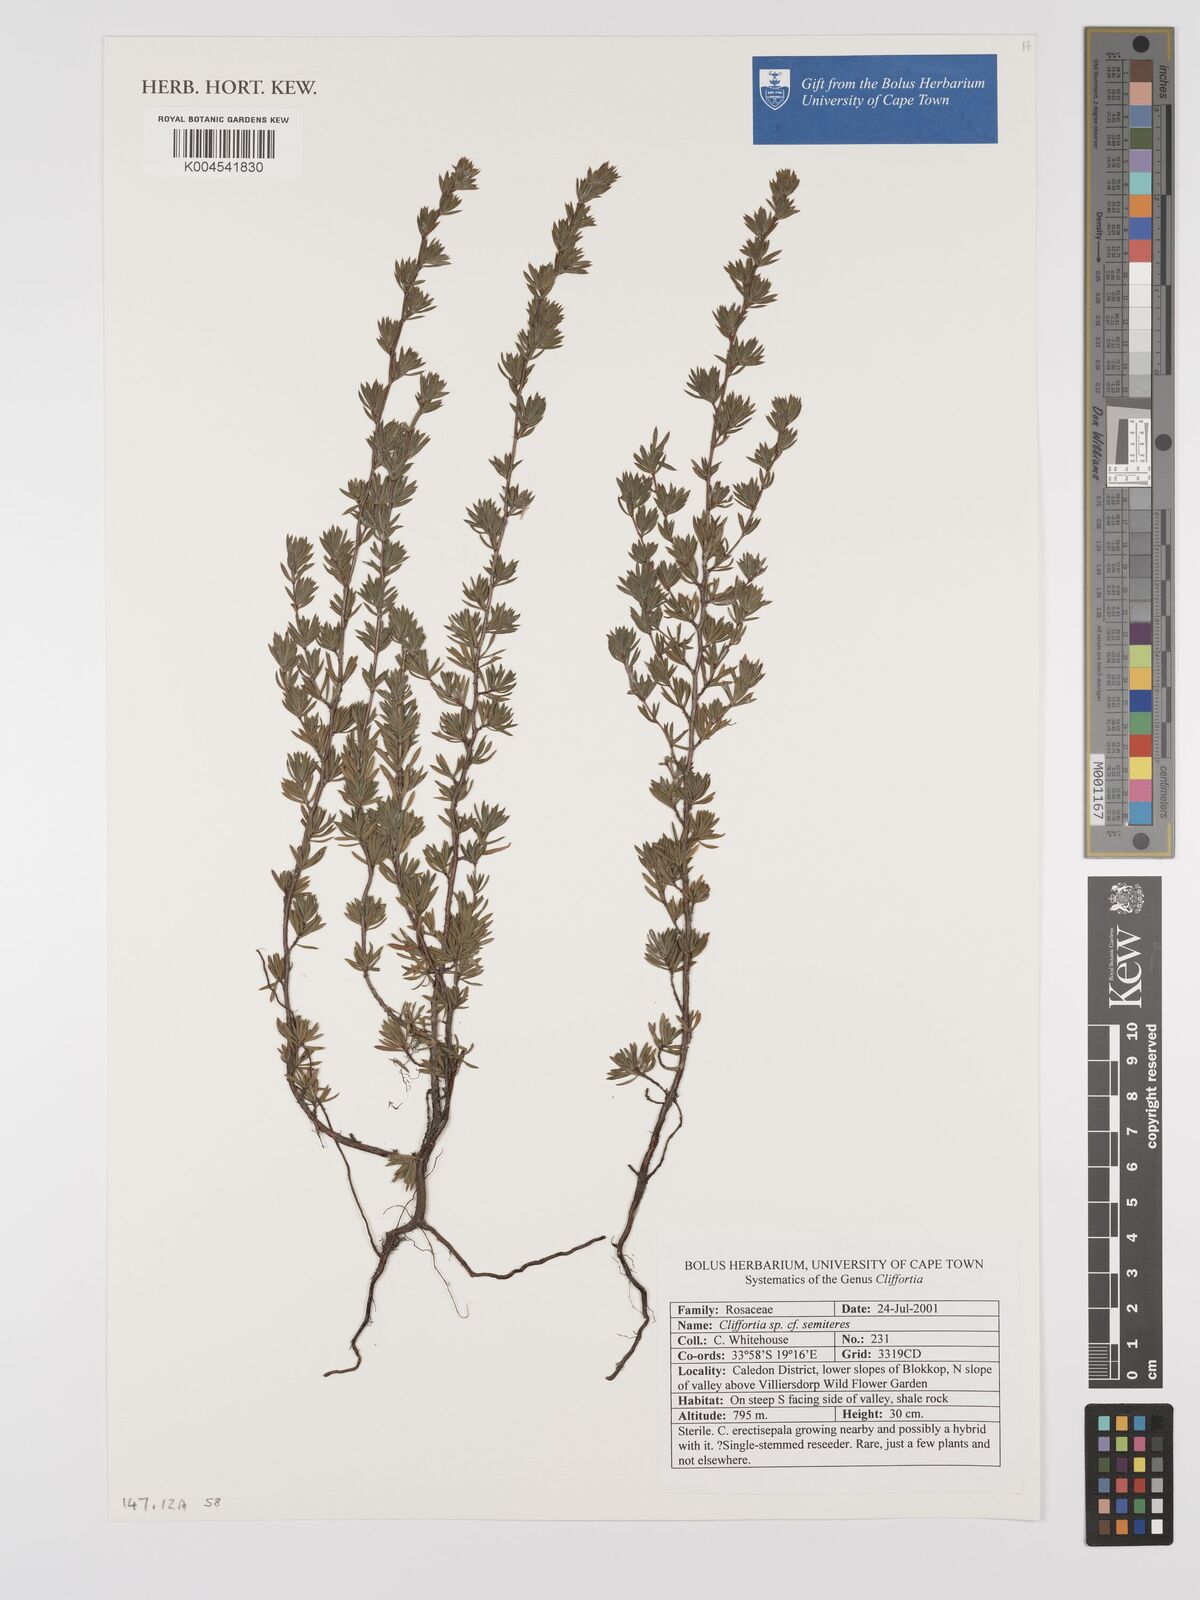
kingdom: Plantae
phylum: Tracheophyta
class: Magnoliopsida
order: Rosales
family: Rosaceae
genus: Cliffortia
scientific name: Cliffortia semiteres
